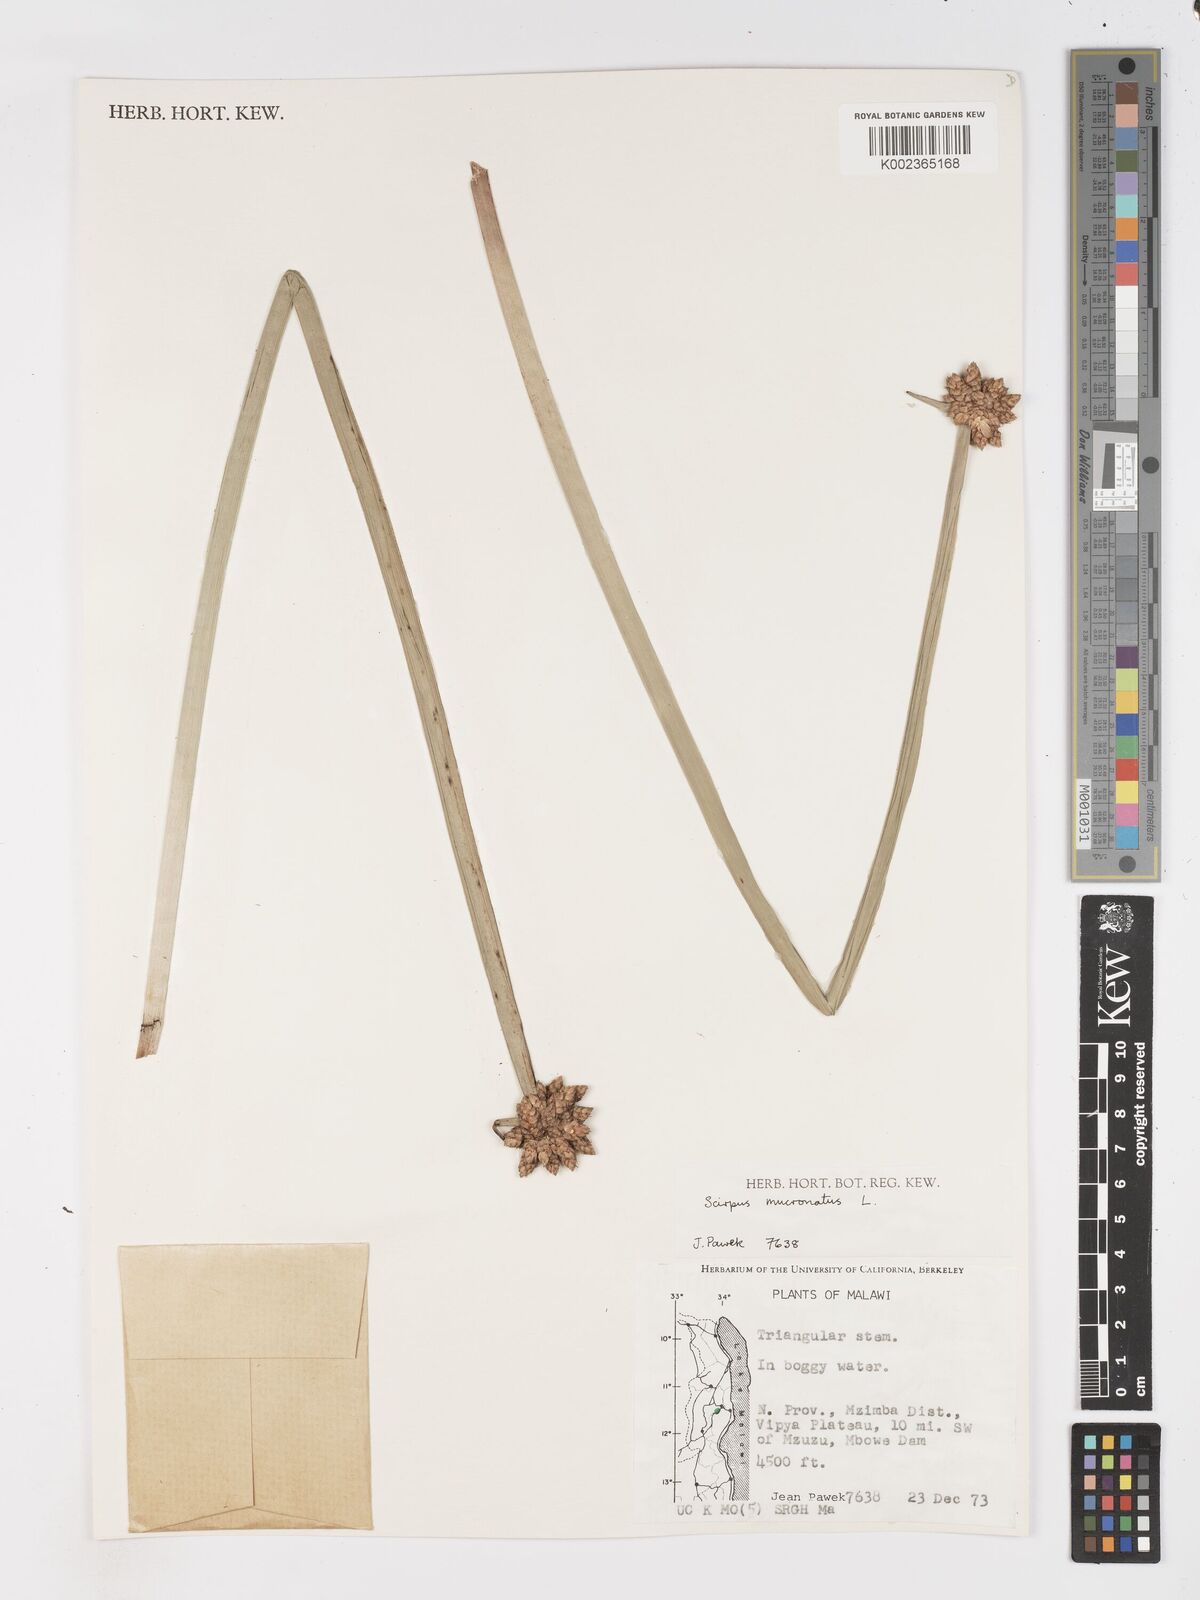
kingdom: Plantae
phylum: Tracheophyta
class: Liliopsida
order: Poales
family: Cyperaceae
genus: Schoenoplectiella
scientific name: Schoenoplectiella mucronata
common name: Bog bulrush
